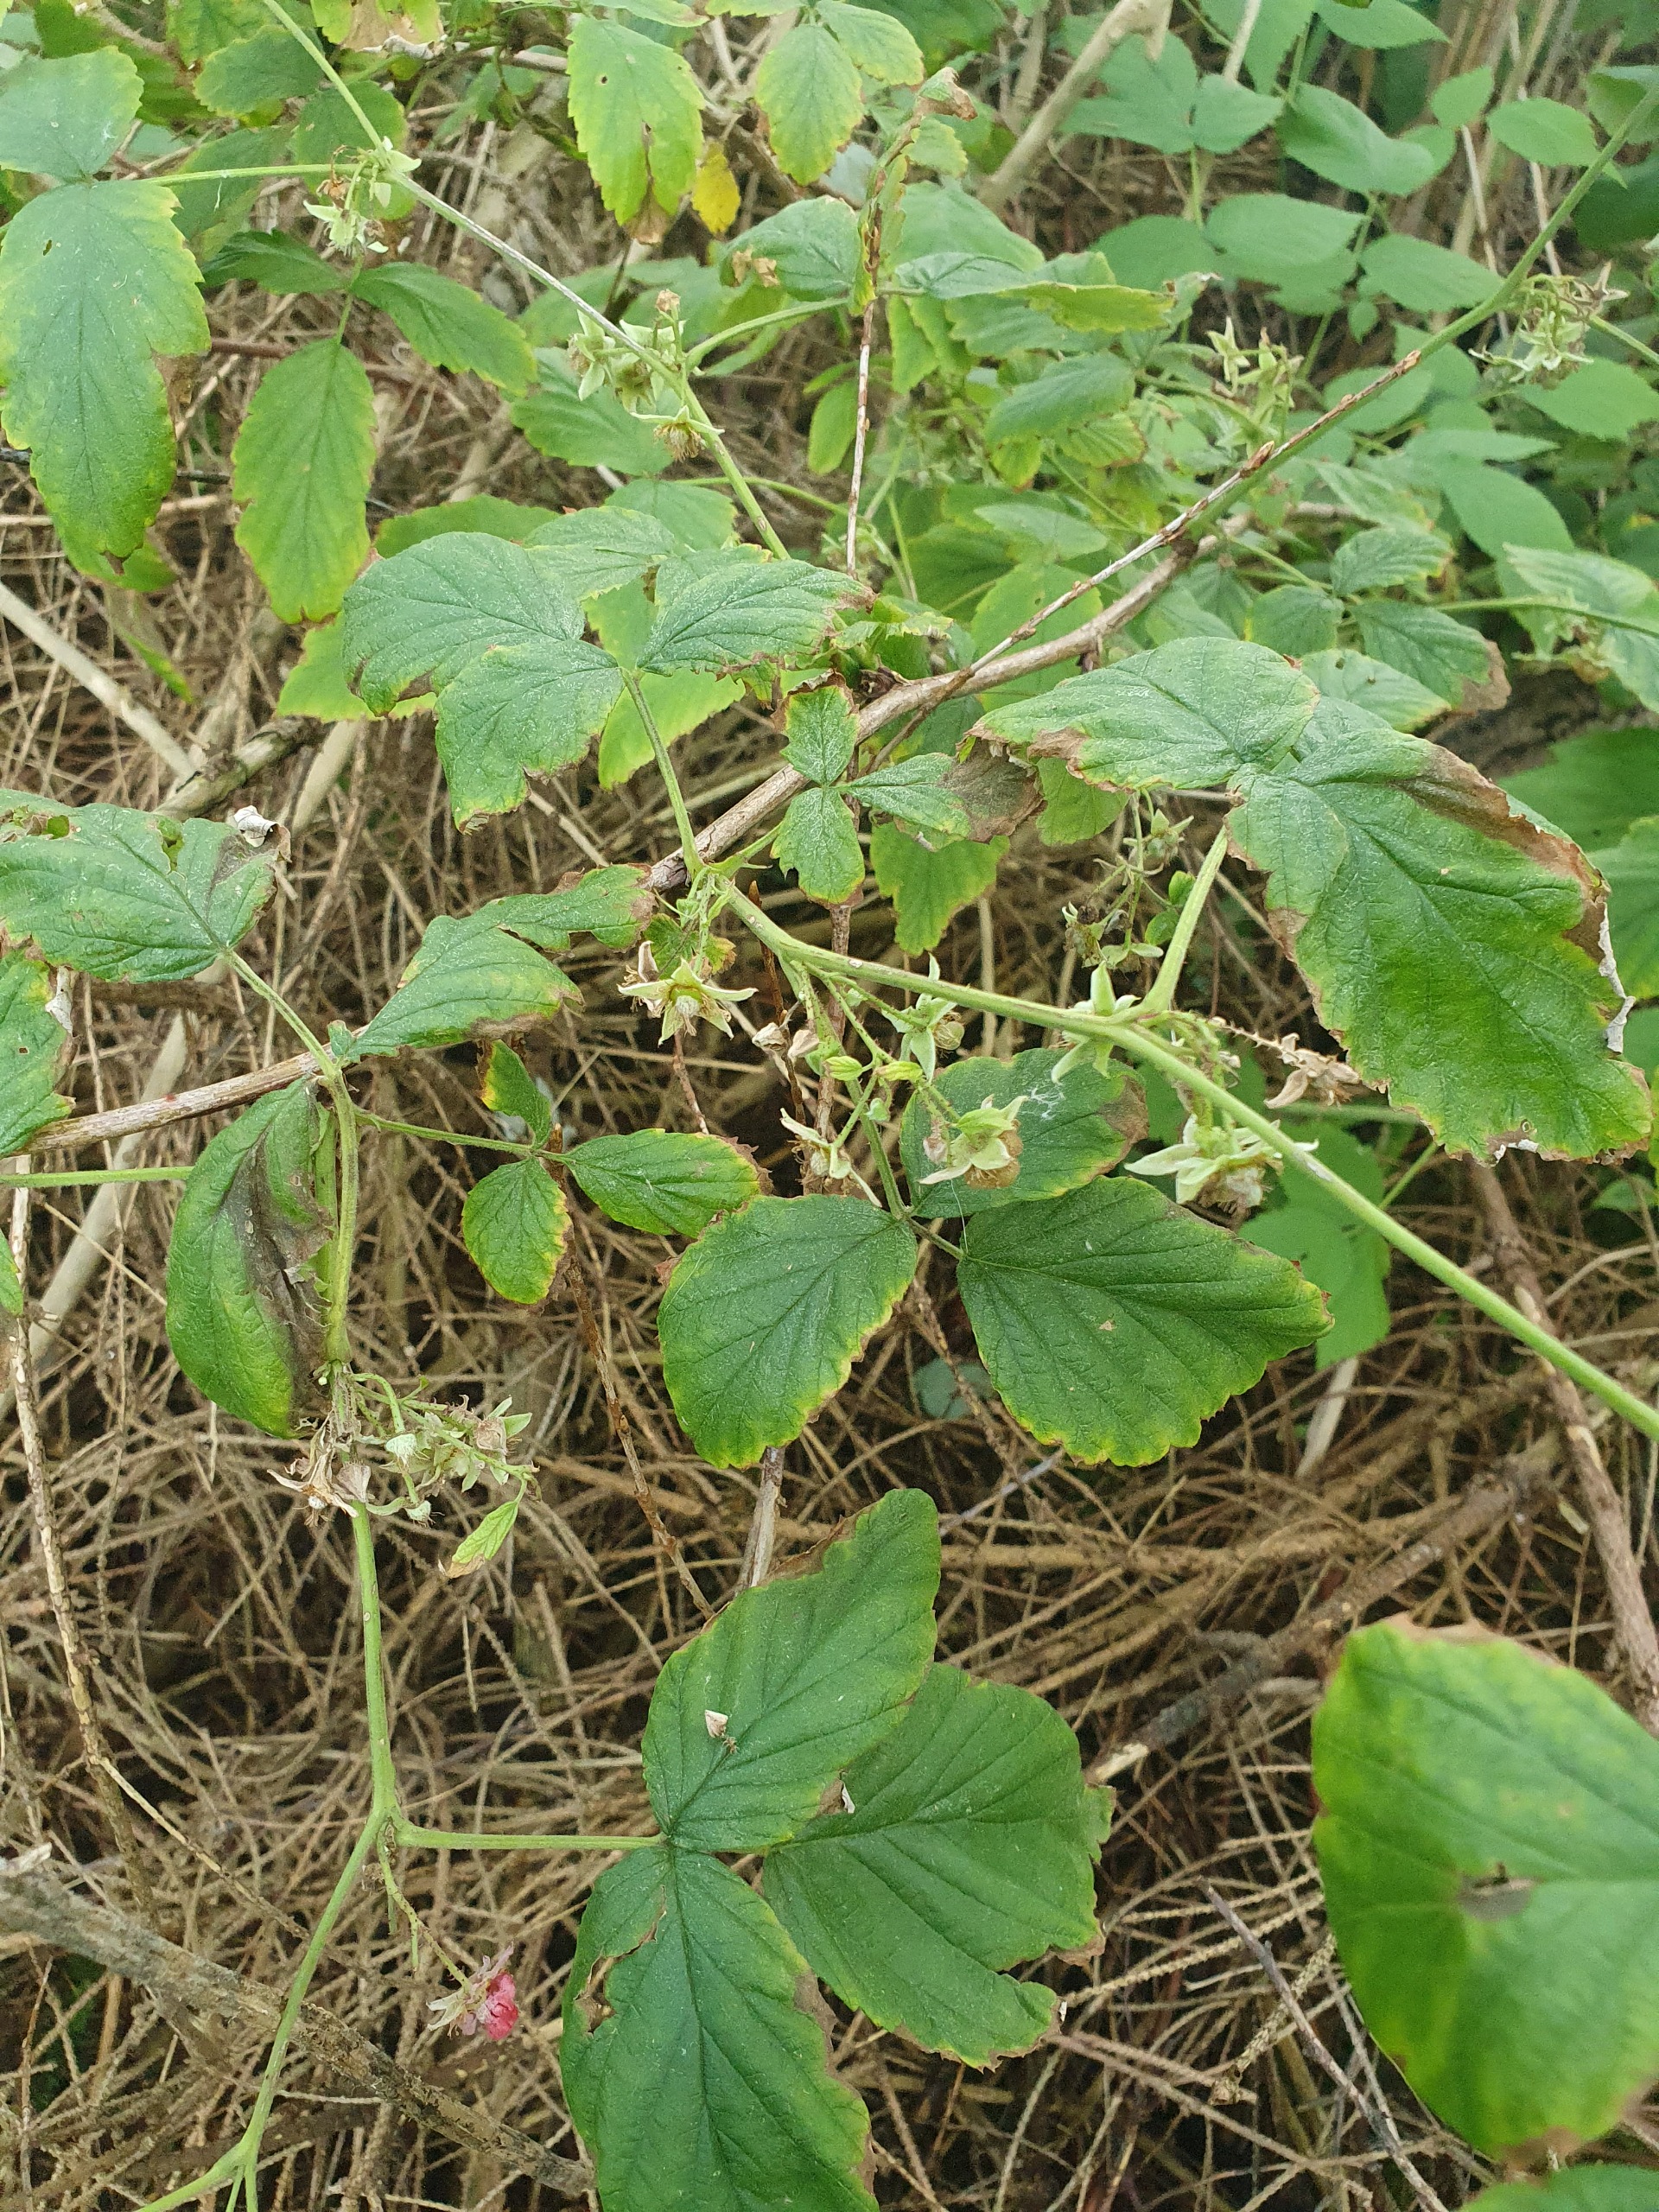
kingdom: Plantae
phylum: Tracheophyta
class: Magnoliopsida
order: Rosales
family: Rosaceae
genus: Rubus
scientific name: Rubus idaeus
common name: Hindbær
